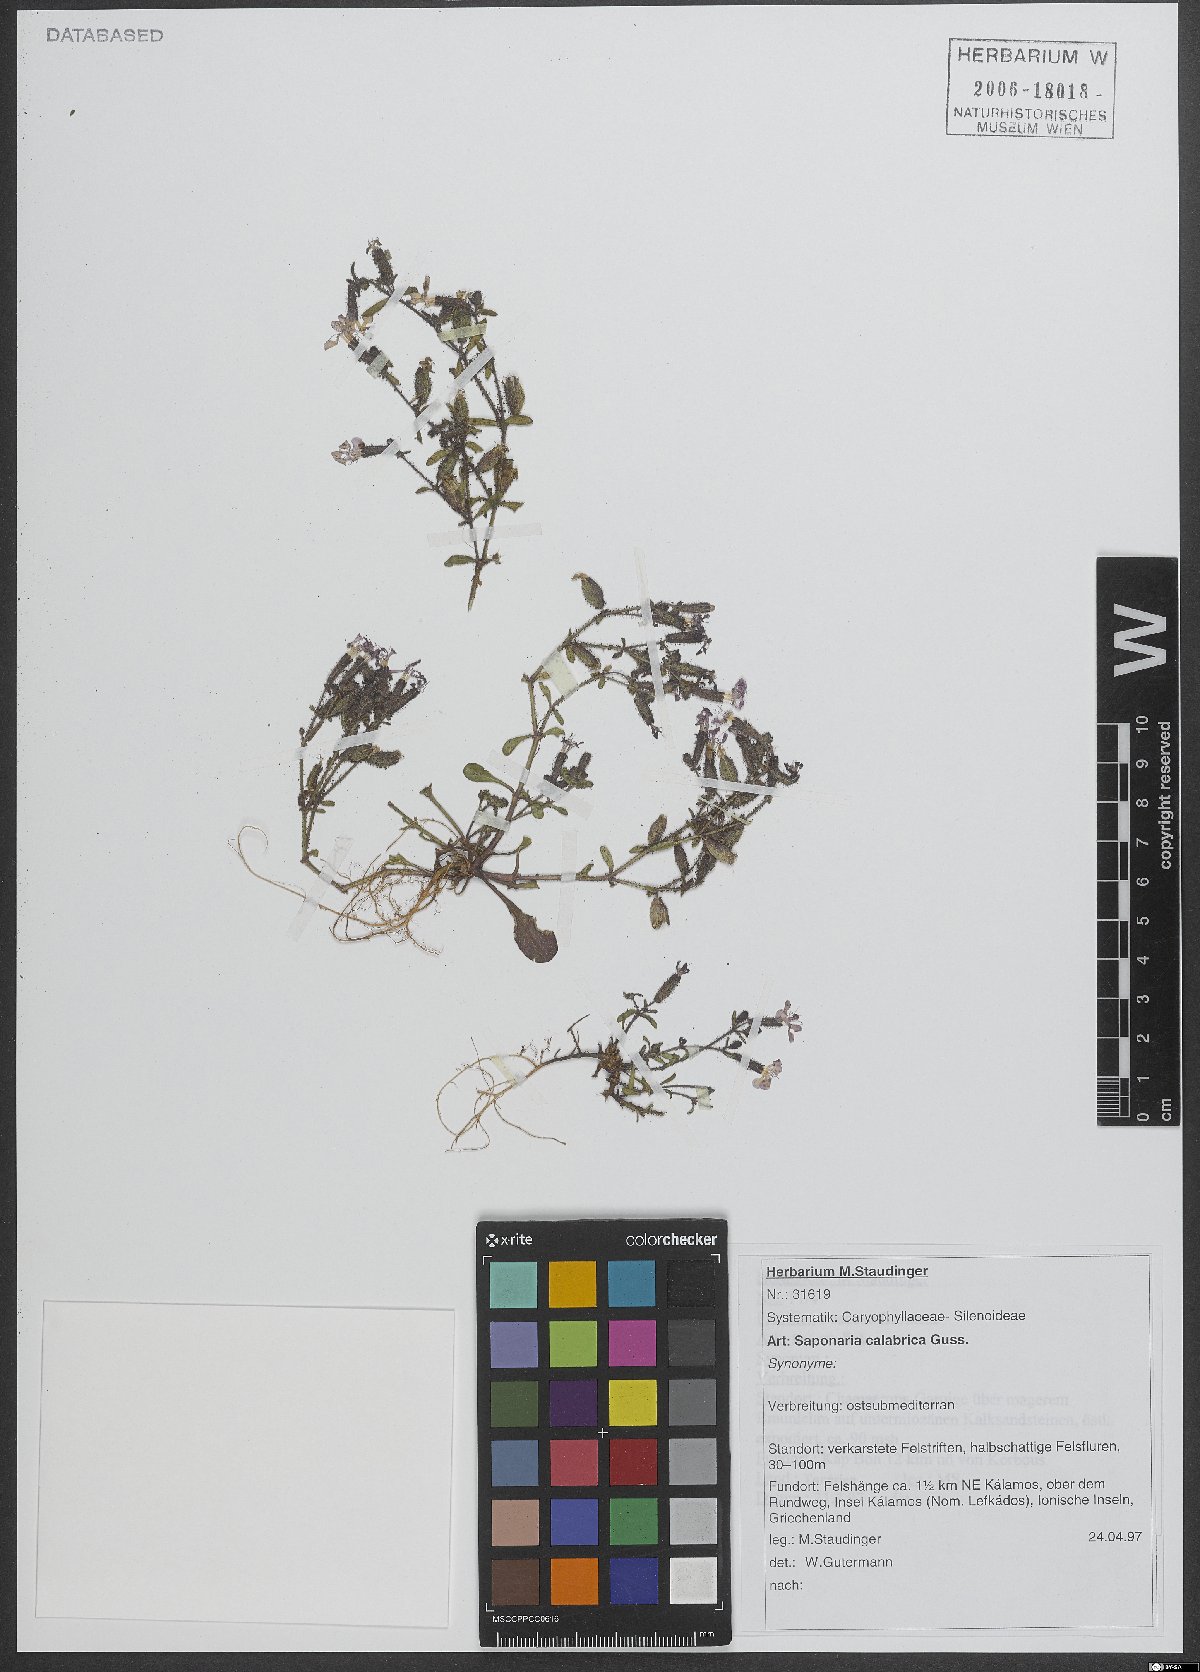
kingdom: Plantae
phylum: Tracheophyta
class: Magnoliopsida
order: Caryophyllales
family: Caryophyllaceae
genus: Saponaria
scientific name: Saponaria calabrica
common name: Adriatic soapwort
